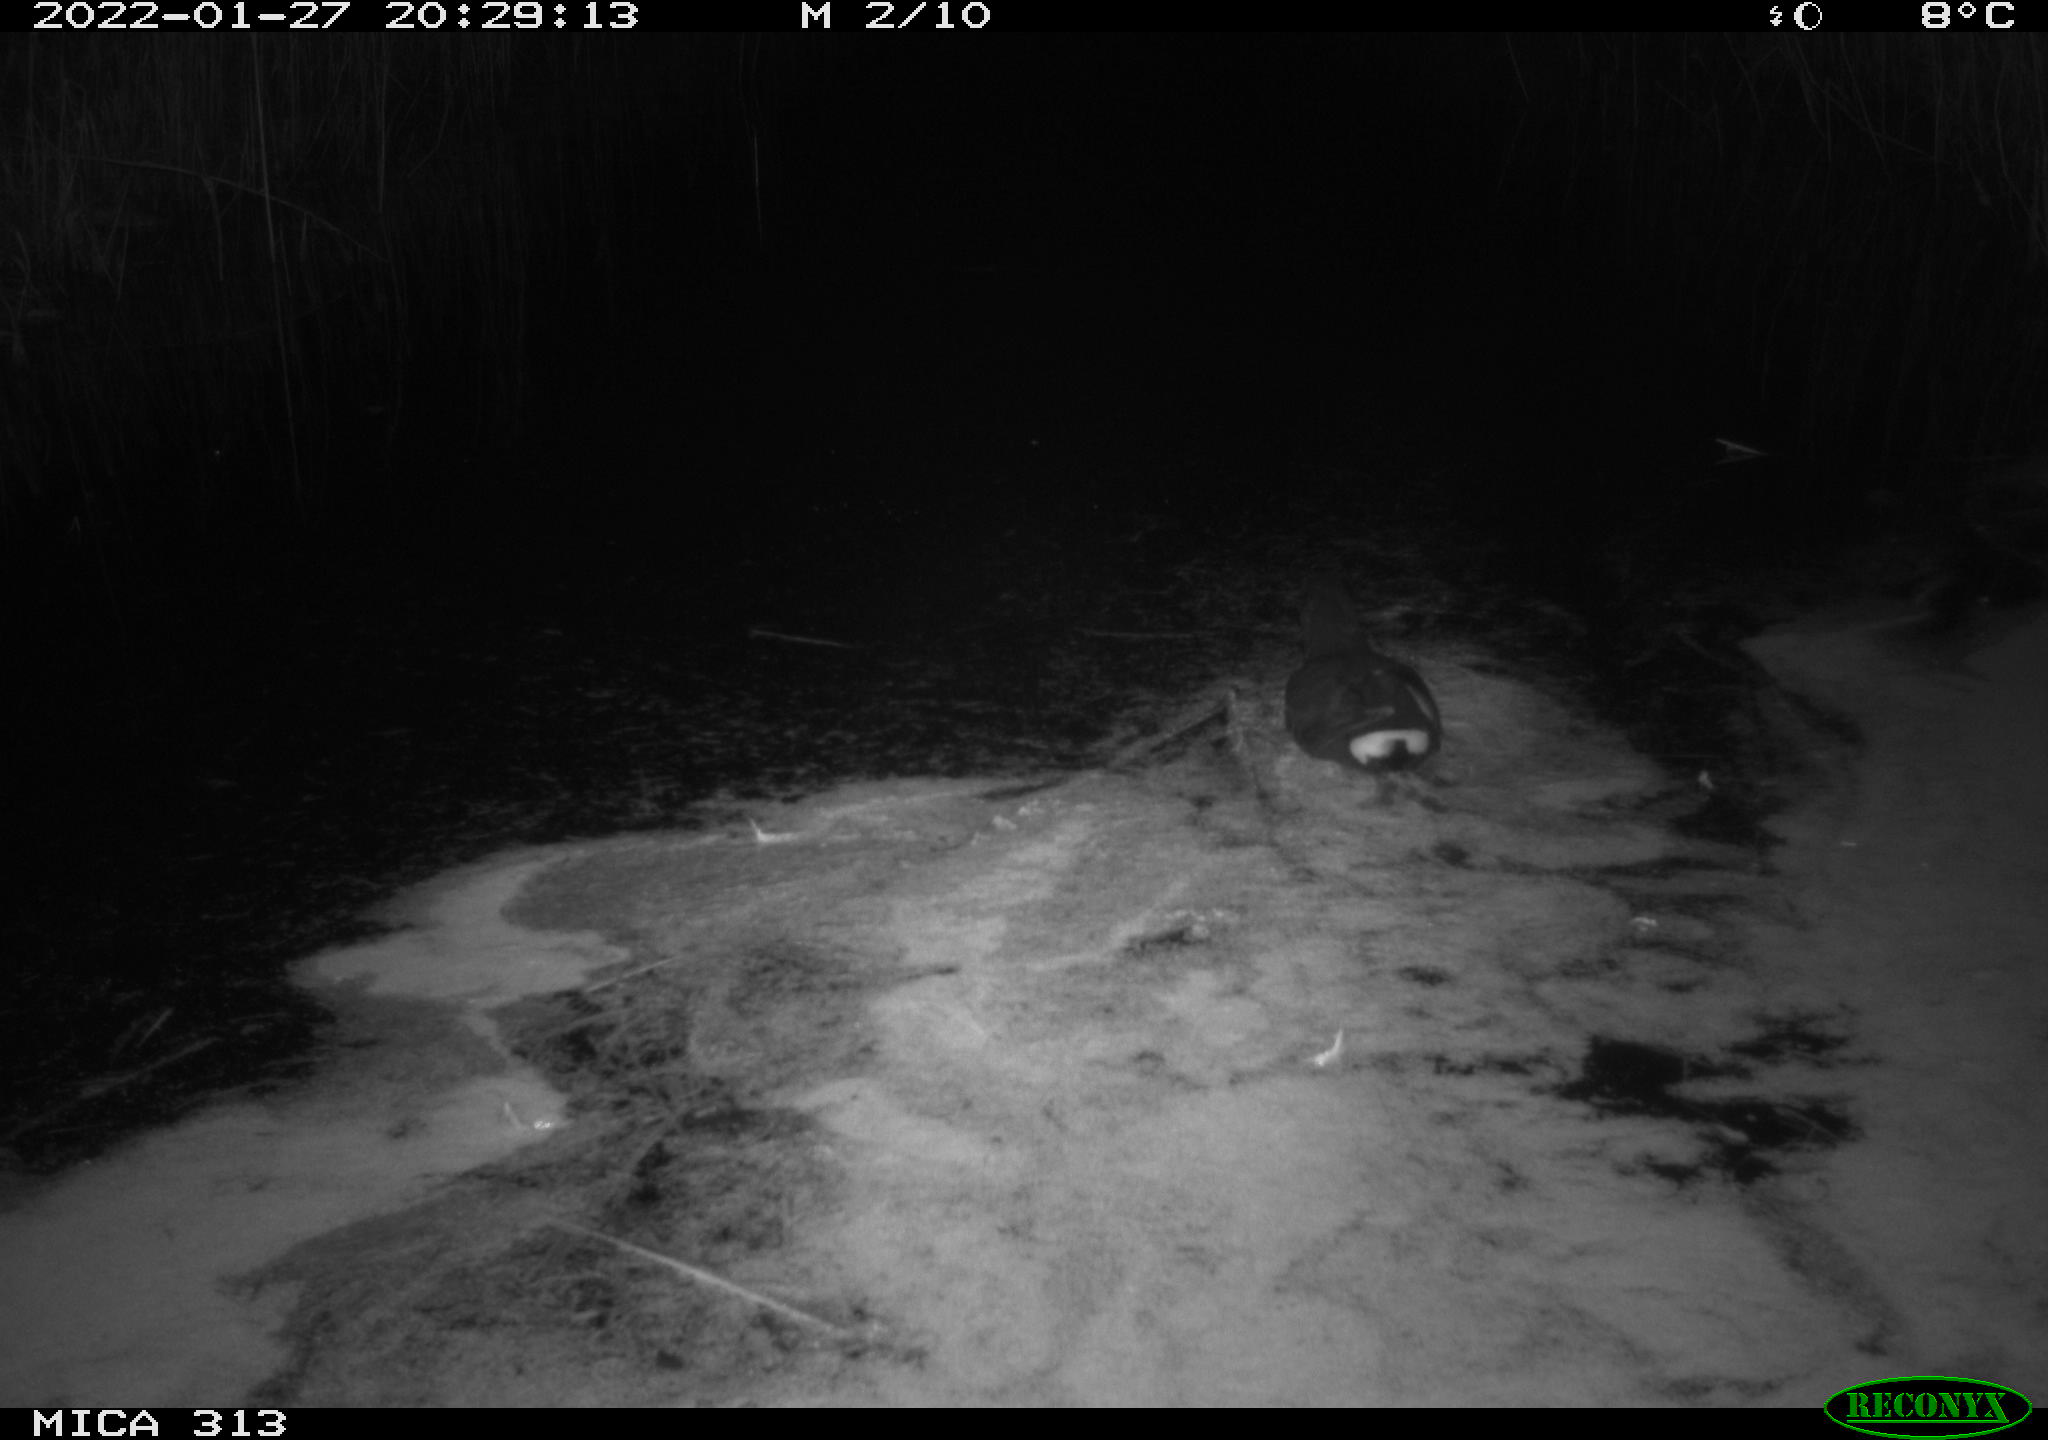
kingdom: Animalia
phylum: Chordata
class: Aves
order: Gruiformes
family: Rallidae
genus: Gallinula
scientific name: Gallinula chloropus
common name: Common moorhen
